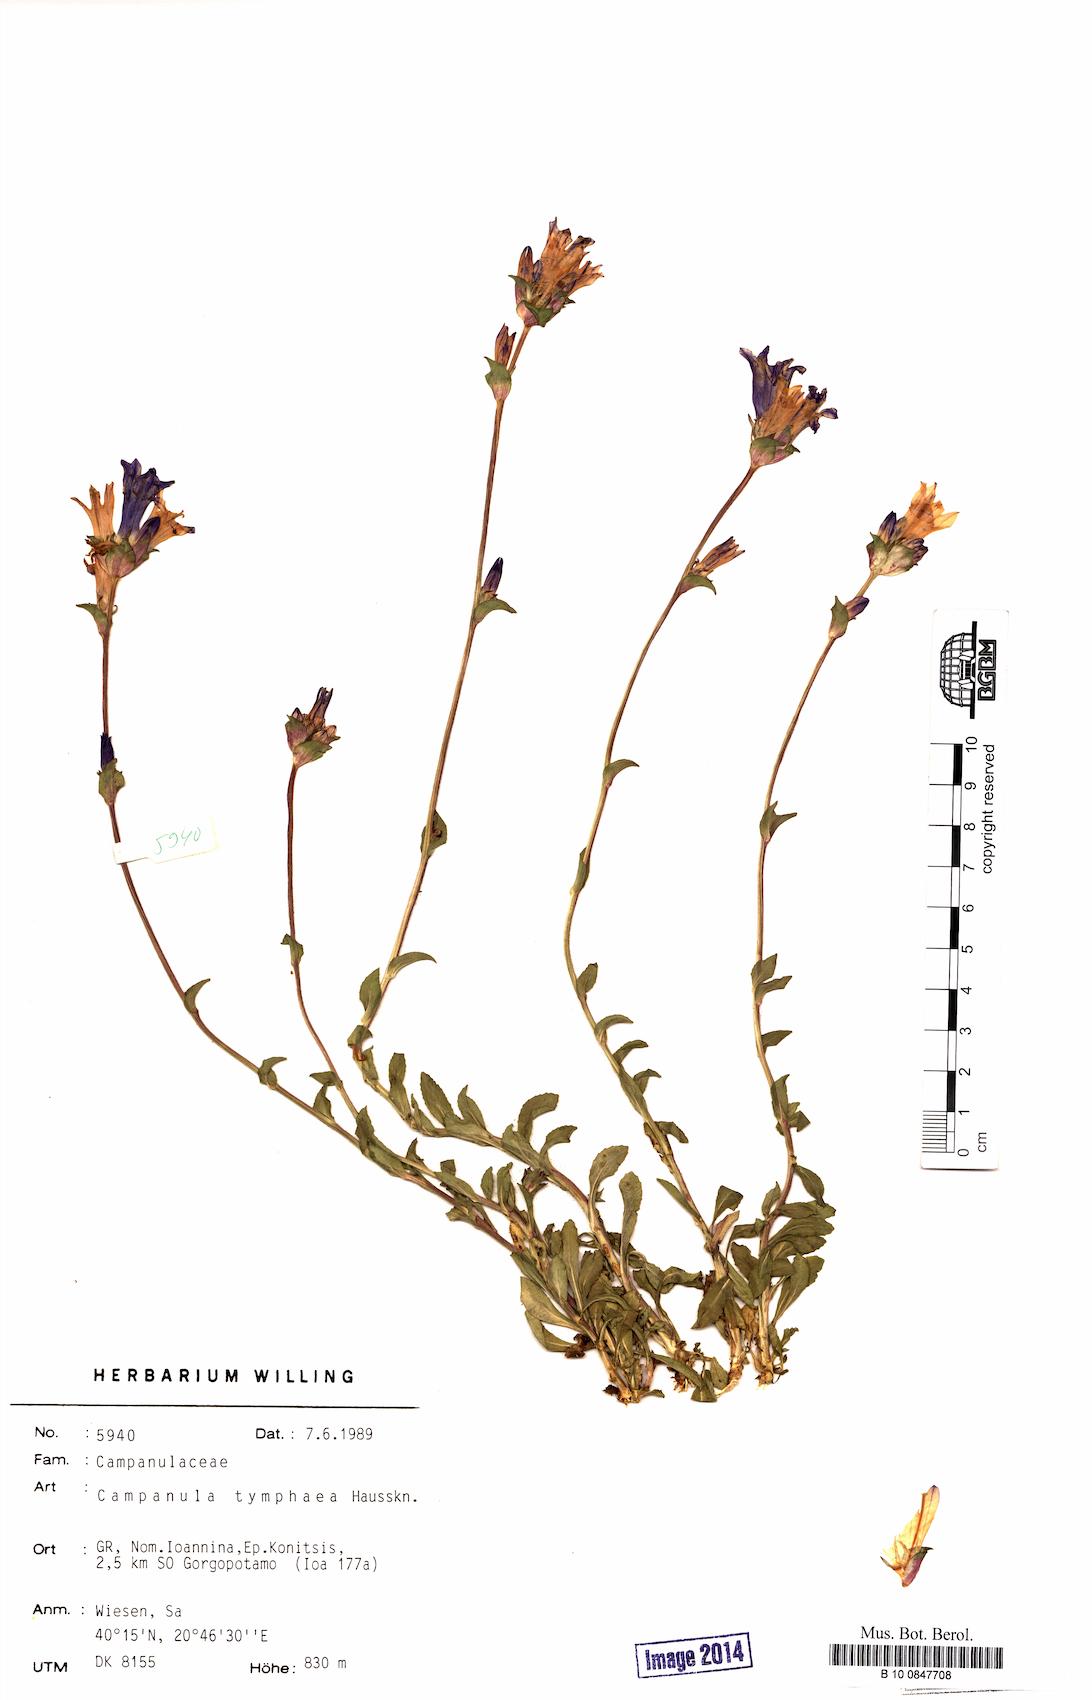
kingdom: Plantae
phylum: Tracheophyta
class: Magnoliopsida
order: Asterales
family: Campanulaceae
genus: Campanula
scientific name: Campanula tymphaea
